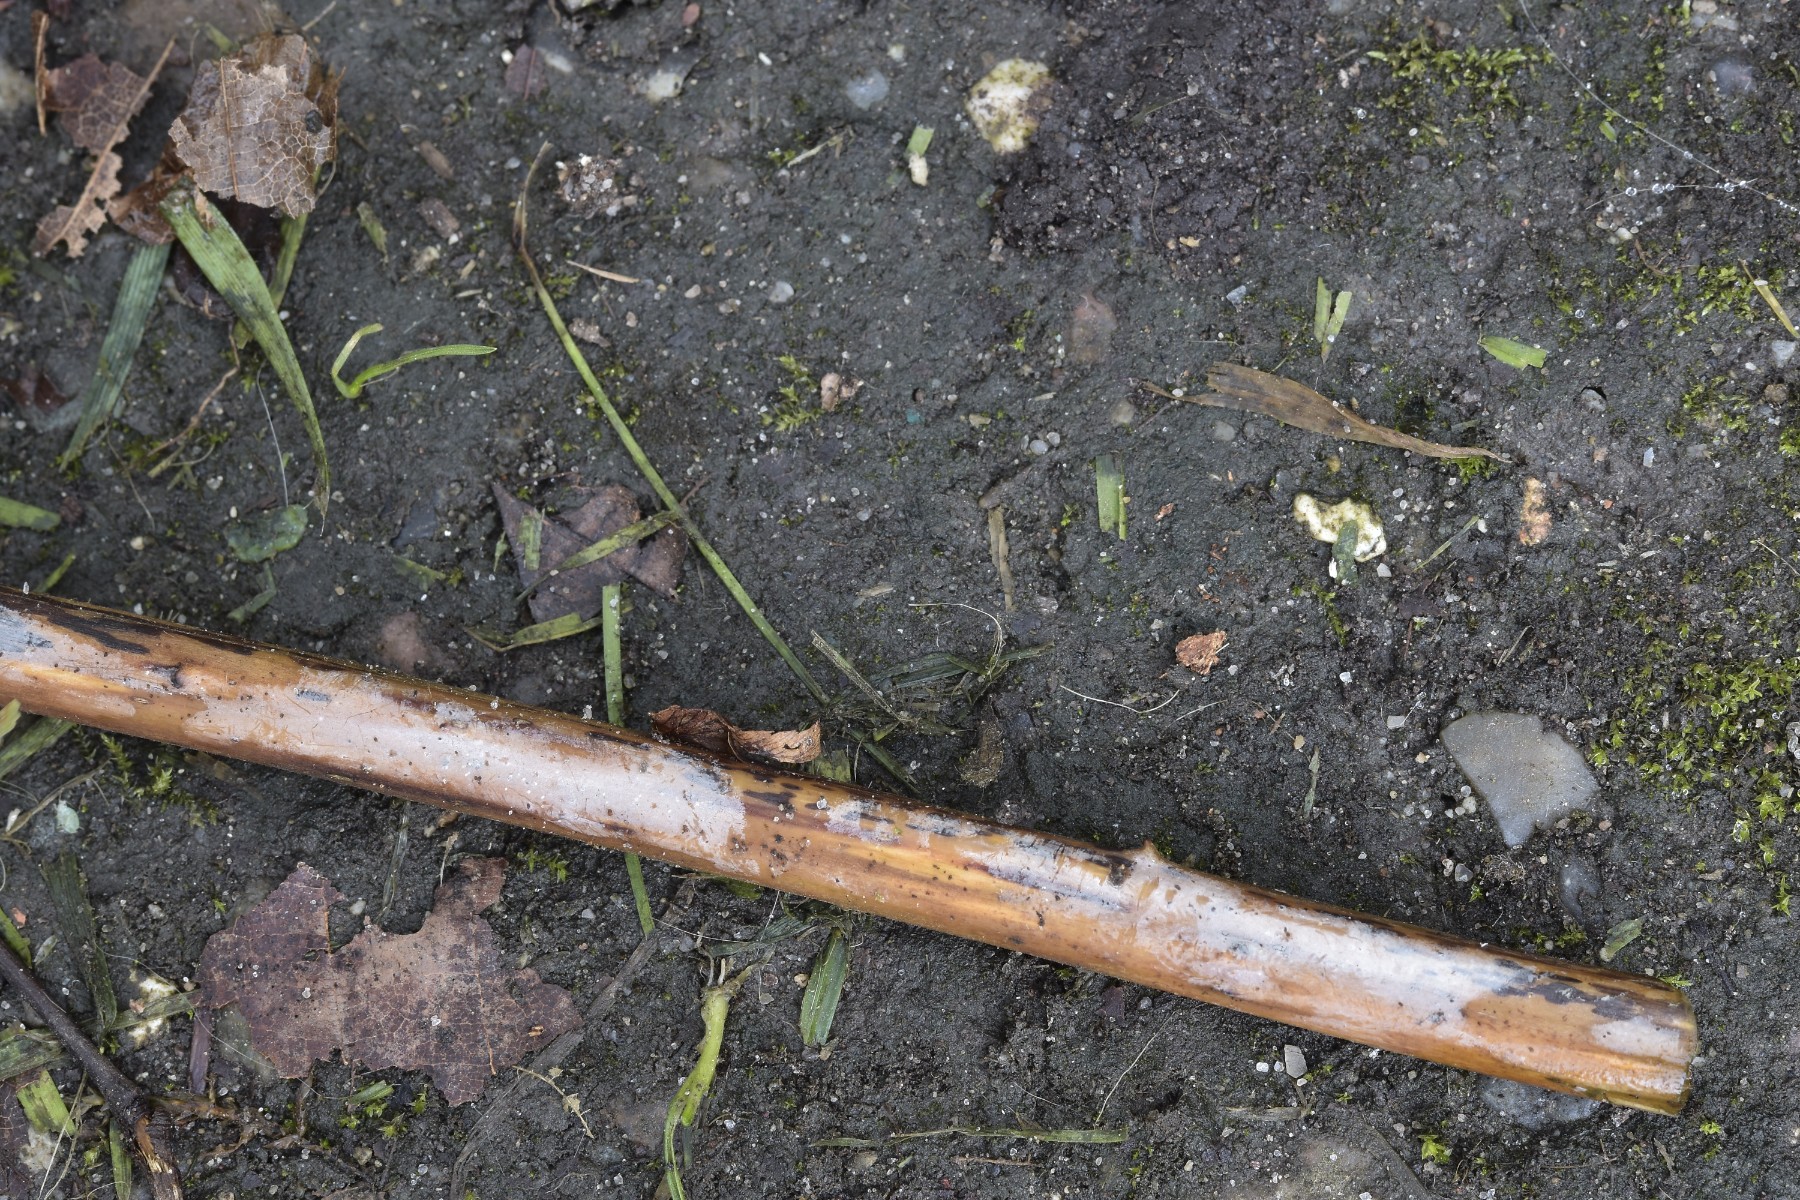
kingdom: Fungi
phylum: Basidiomycota
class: Agaricomycetes
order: Agaricales
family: Radulomycetaceae
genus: Aphanobasidium
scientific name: Aphanobasidium filicinum
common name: bregne-naftalinskind
